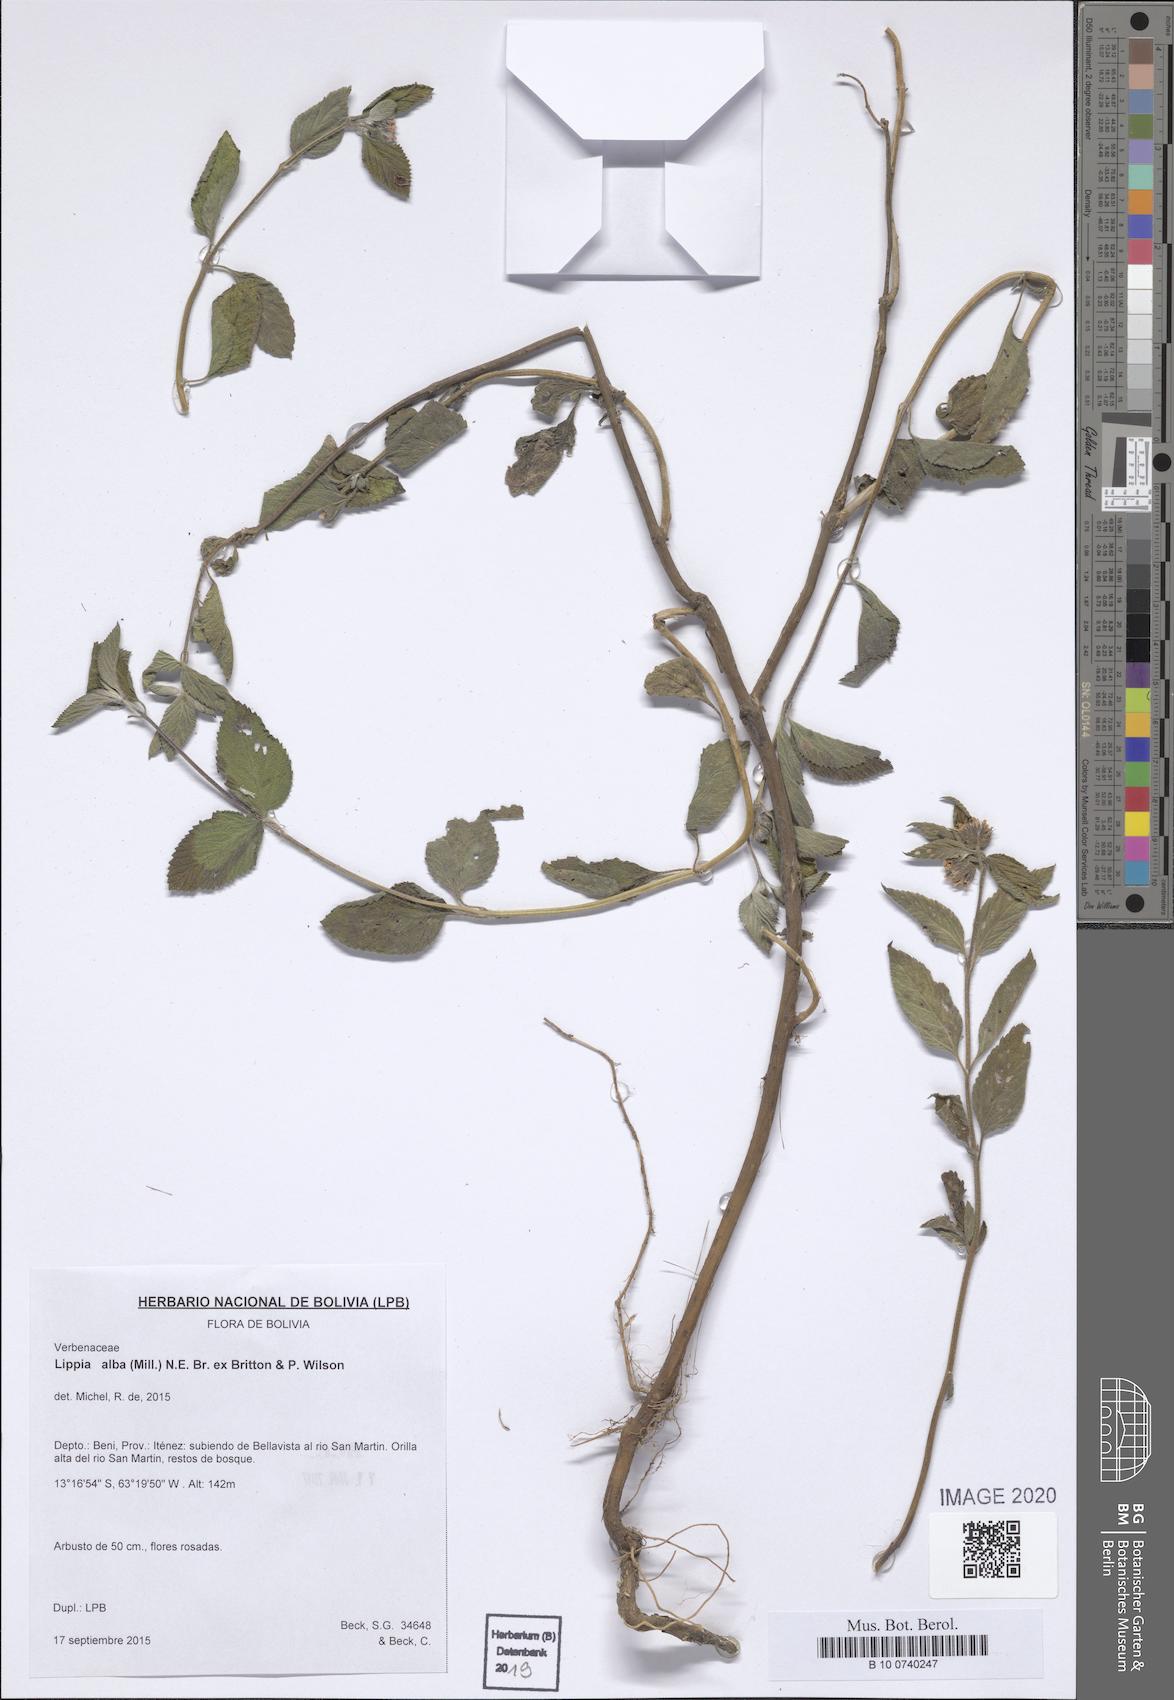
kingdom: Plantae
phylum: Tracheophyta
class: Magnoliopsida
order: Lamiales
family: Verbenaceae
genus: Lippia
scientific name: Lippia alba
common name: Bushy matgrass
